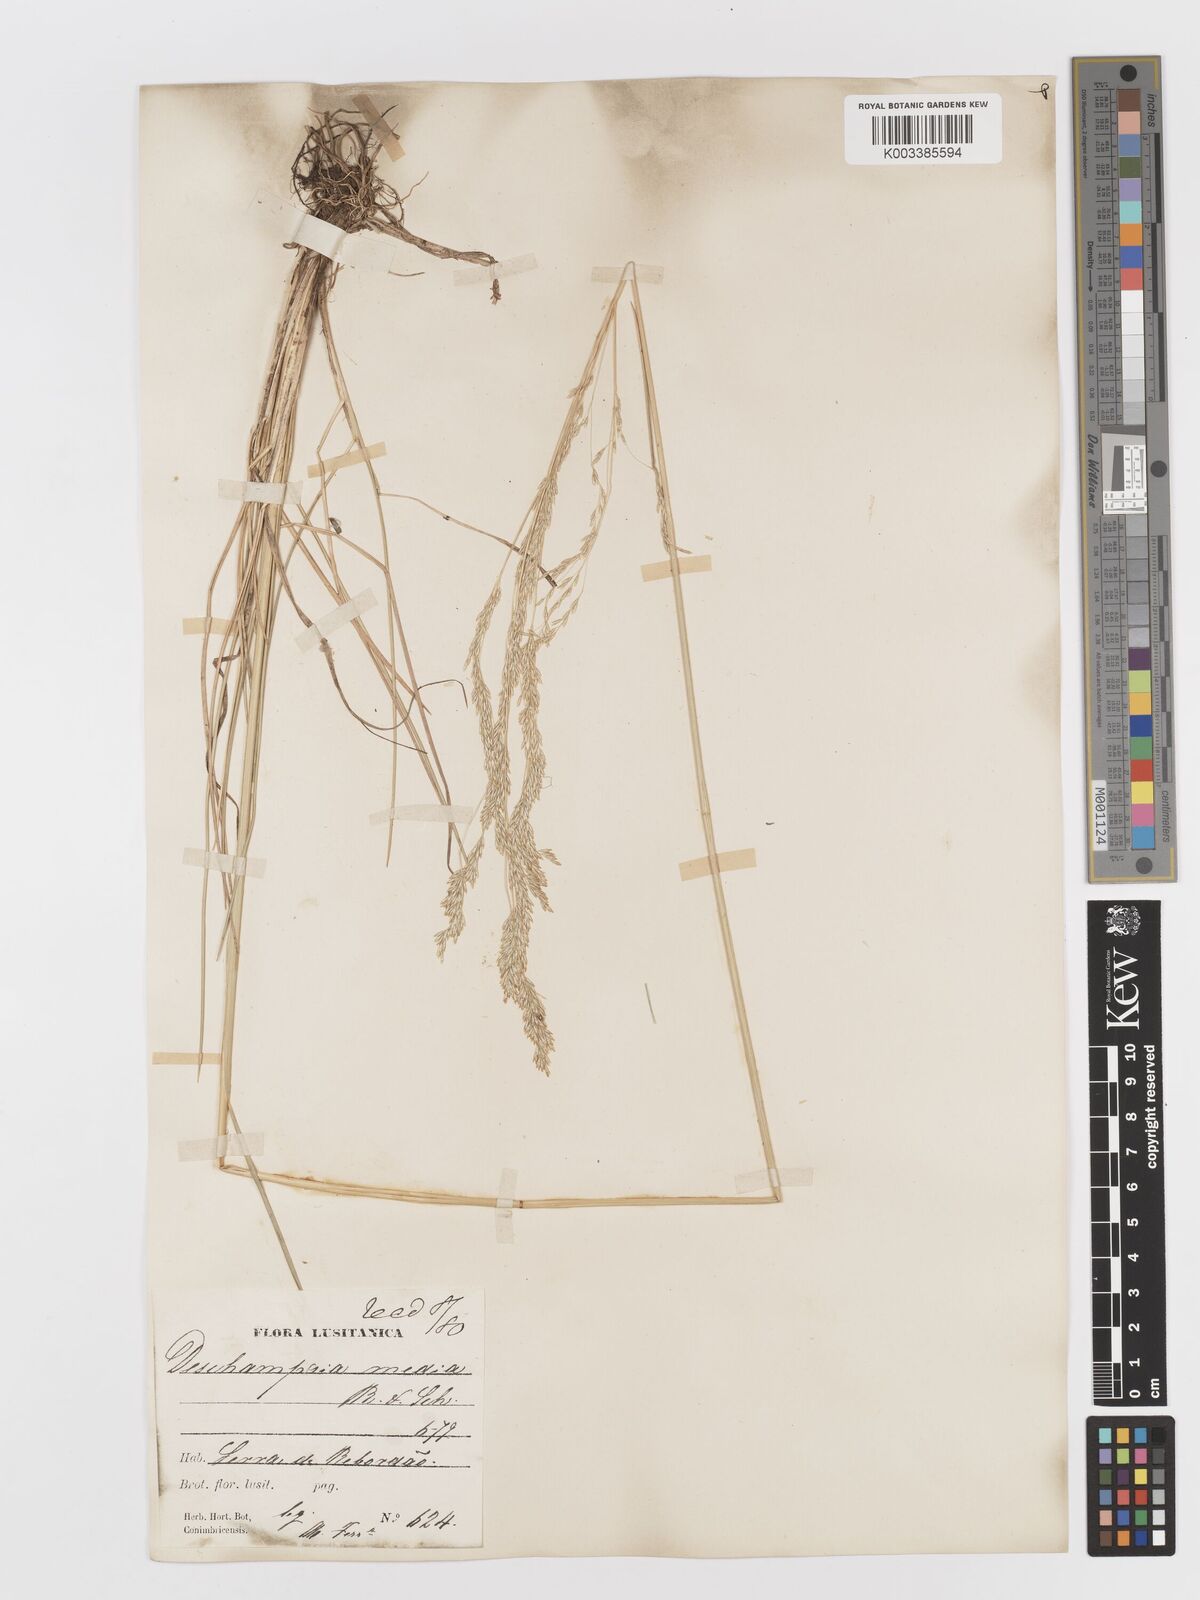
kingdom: Plantae
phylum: Tracheophyta
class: Liliopsida
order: Poales
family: Poaceae
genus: Deschampsia
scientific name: Deschampsia media
